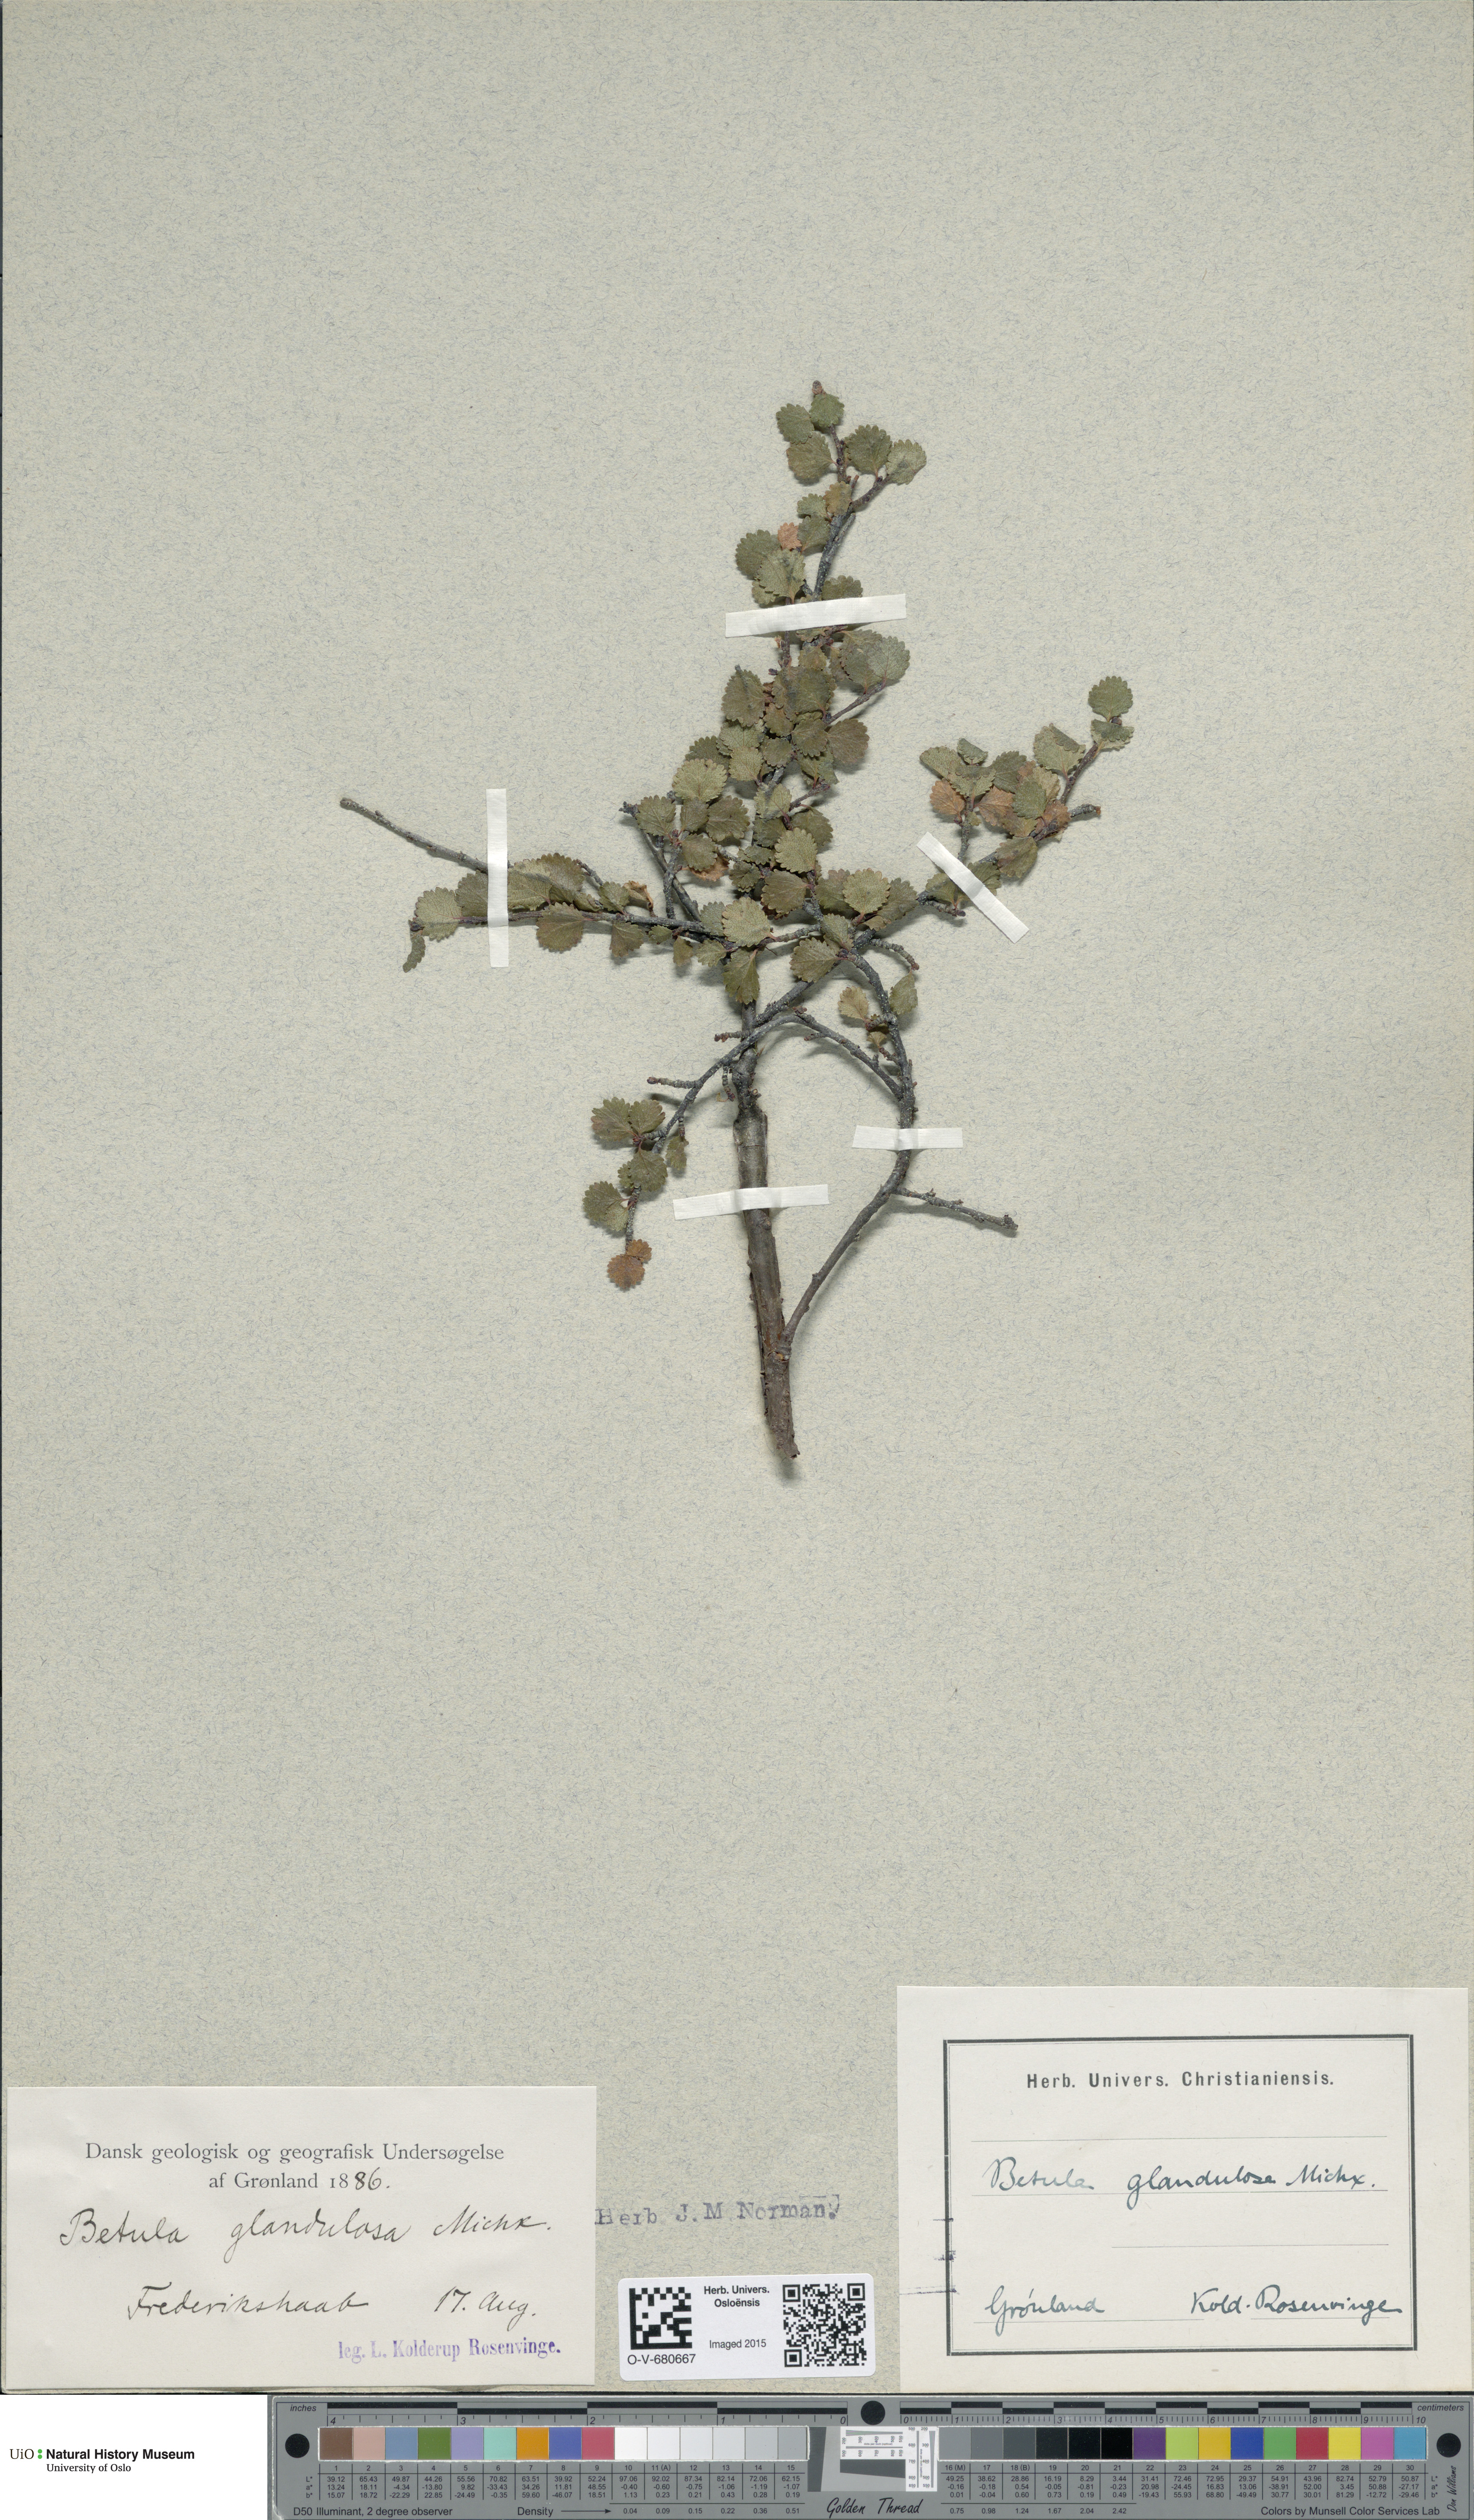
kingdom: Plantae
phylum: Tracheophyta
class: Magnoliopsida
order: Fagales
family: Betulaceae
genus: Betula
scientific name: Betula glandulosa
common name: Dwarf birch
